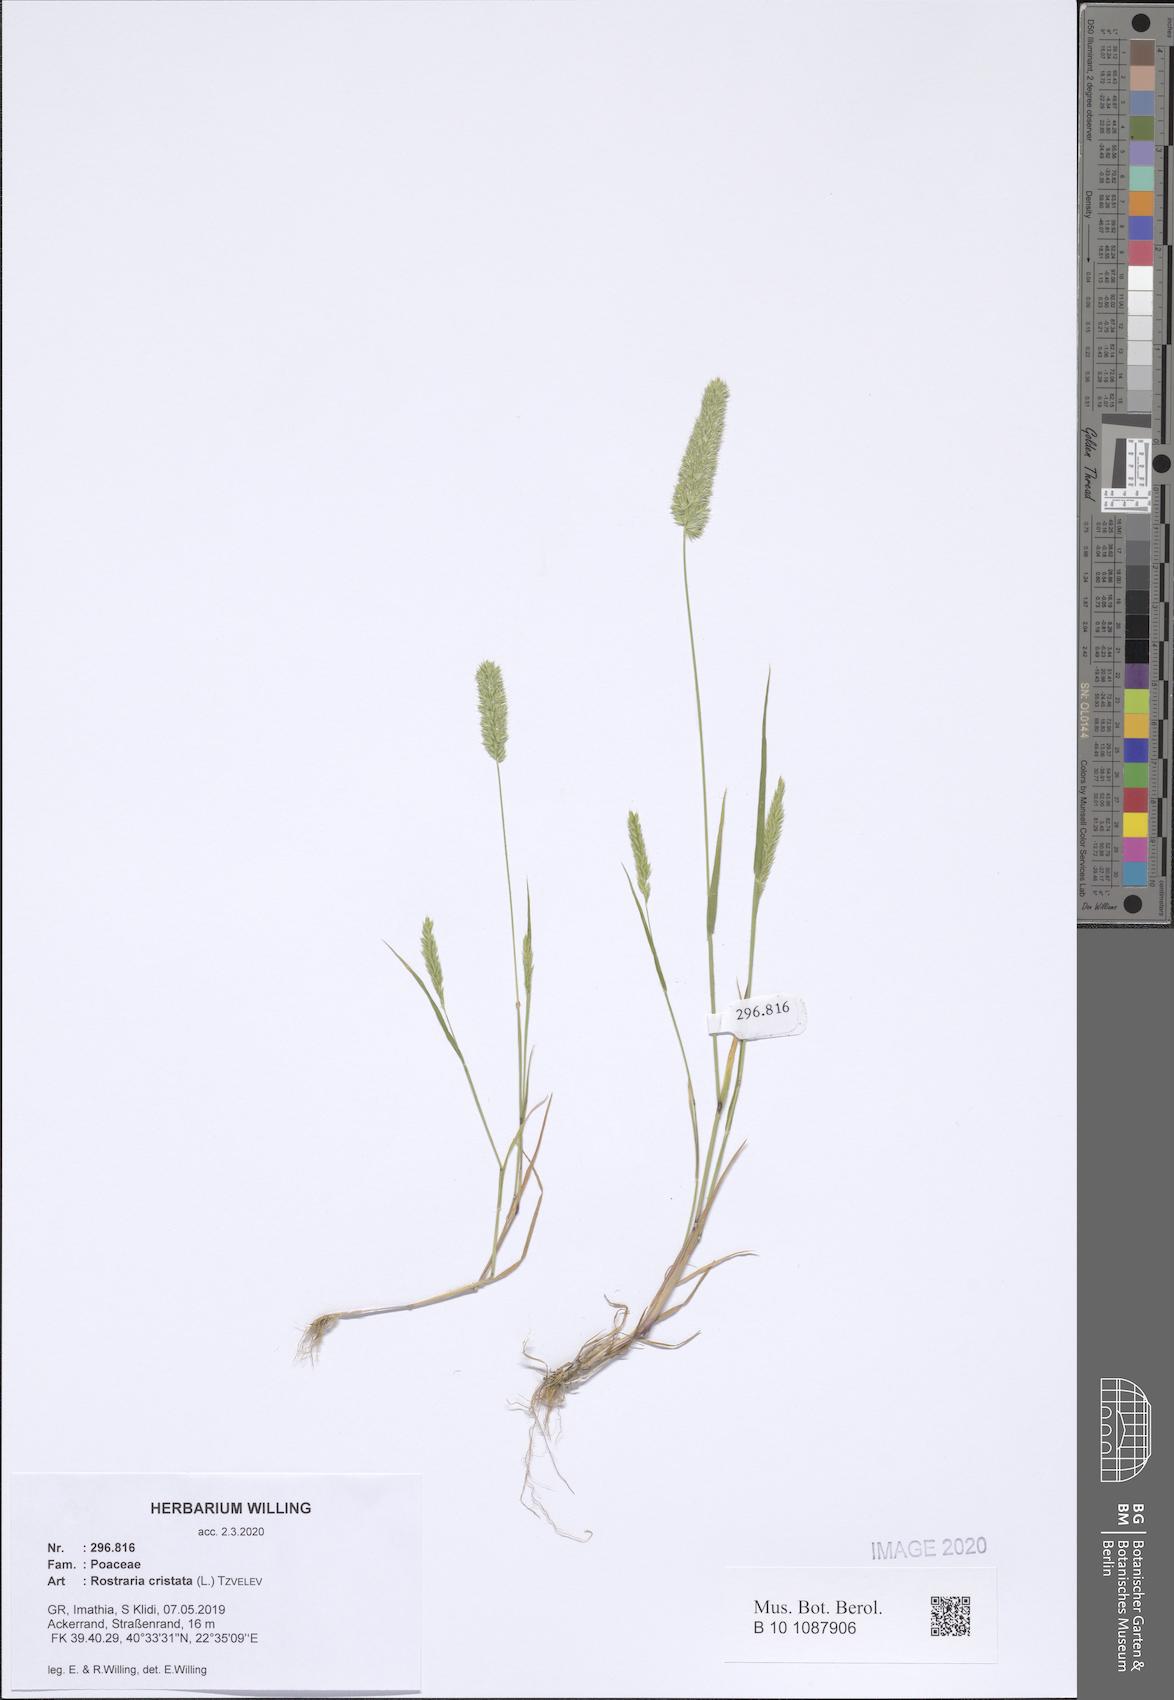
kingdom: Plantae
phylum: Tracheophyta
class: Liliopsida
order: Poales
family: Poaceae
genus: Rostraria
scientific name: Rostraria cristata
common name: Mediterranean hair-grass
